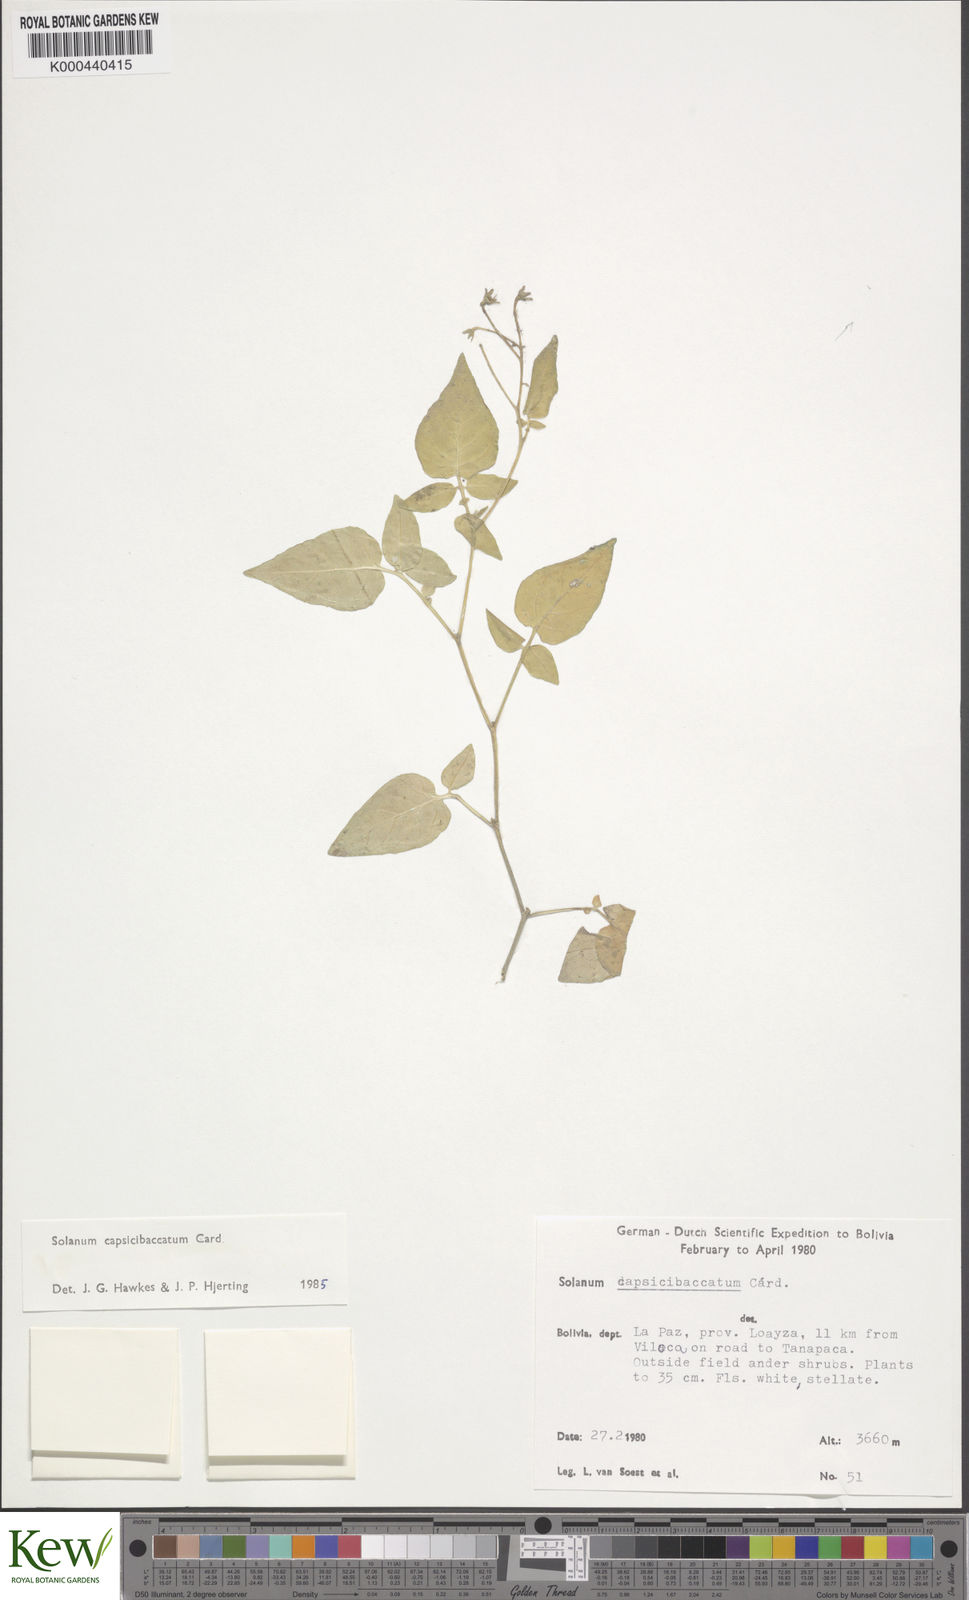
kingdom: Plantae
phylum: Tracheophyta
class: Magnoliopsida
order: Solanales
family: Solanaceae
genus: Solanum
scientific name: Solanum stipuloideum
